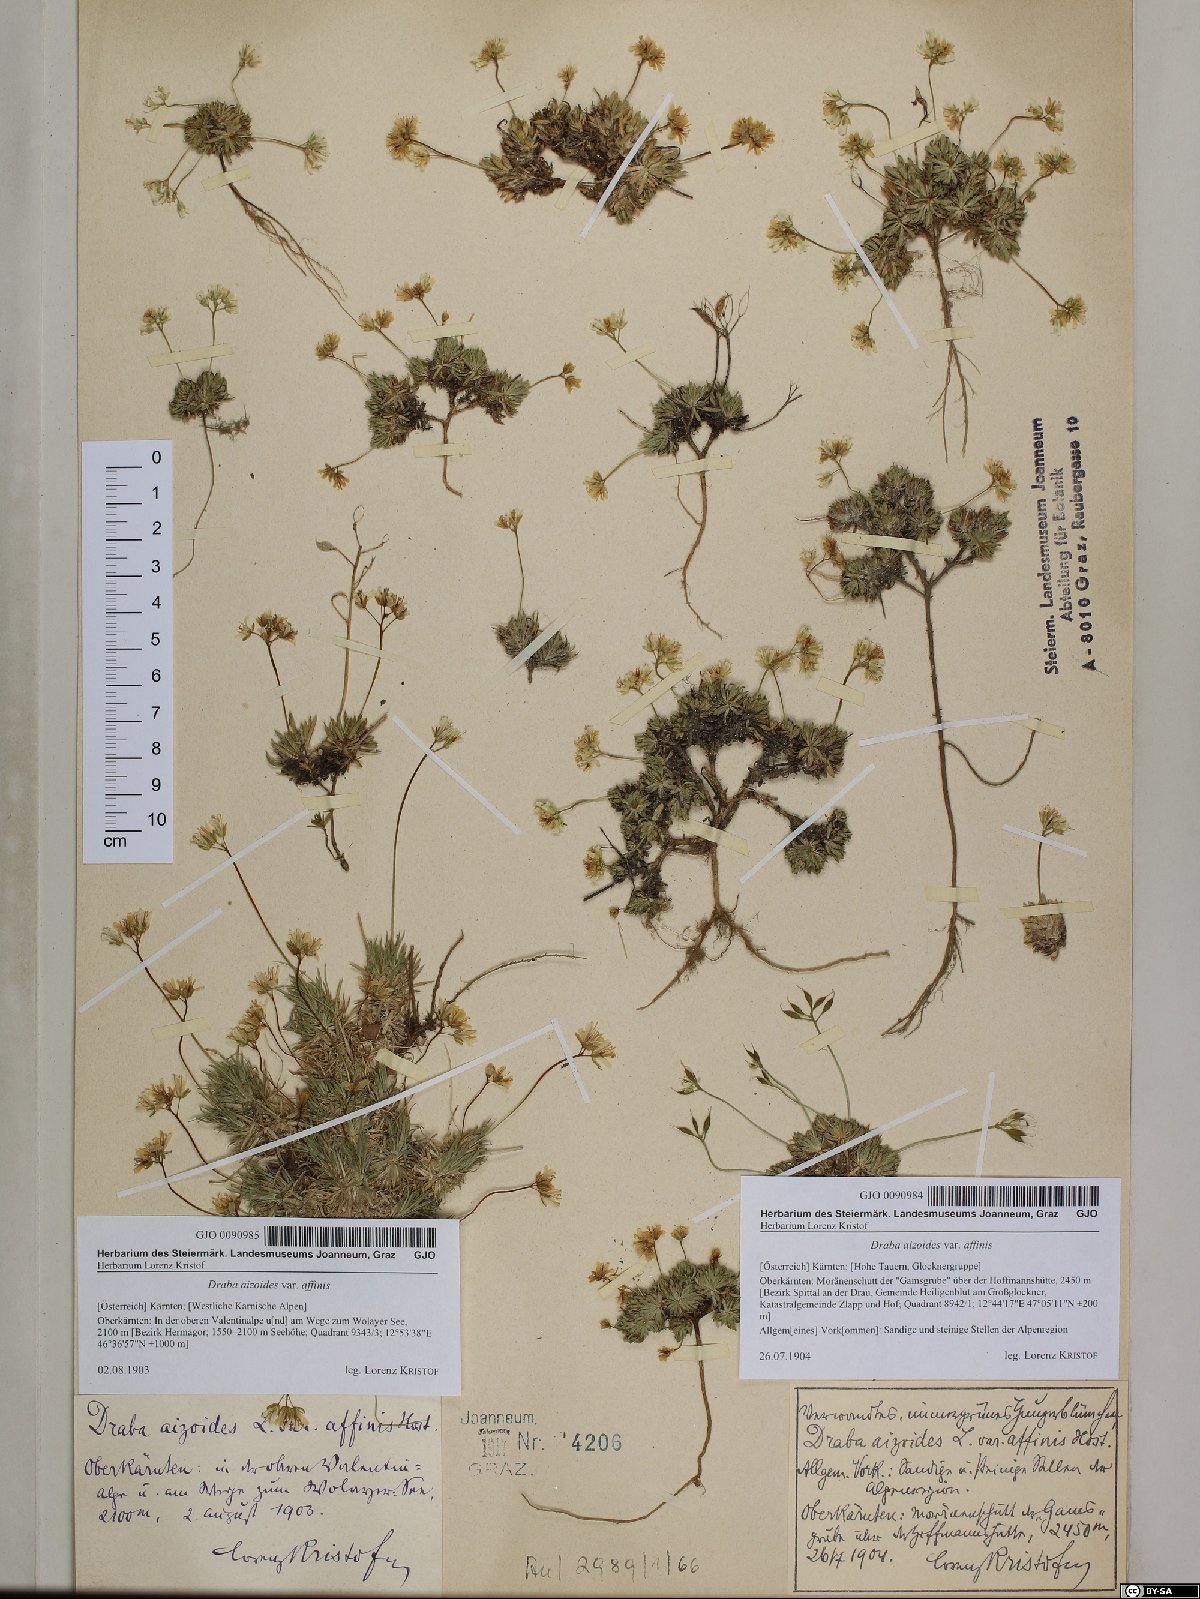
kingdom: Plantae
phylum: Tracheophyta
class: Magnoliopsida
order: Brassicales
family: Brassicaceae
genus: Draba
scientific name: Draba aizoides
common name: Yellow whitlowgrass
